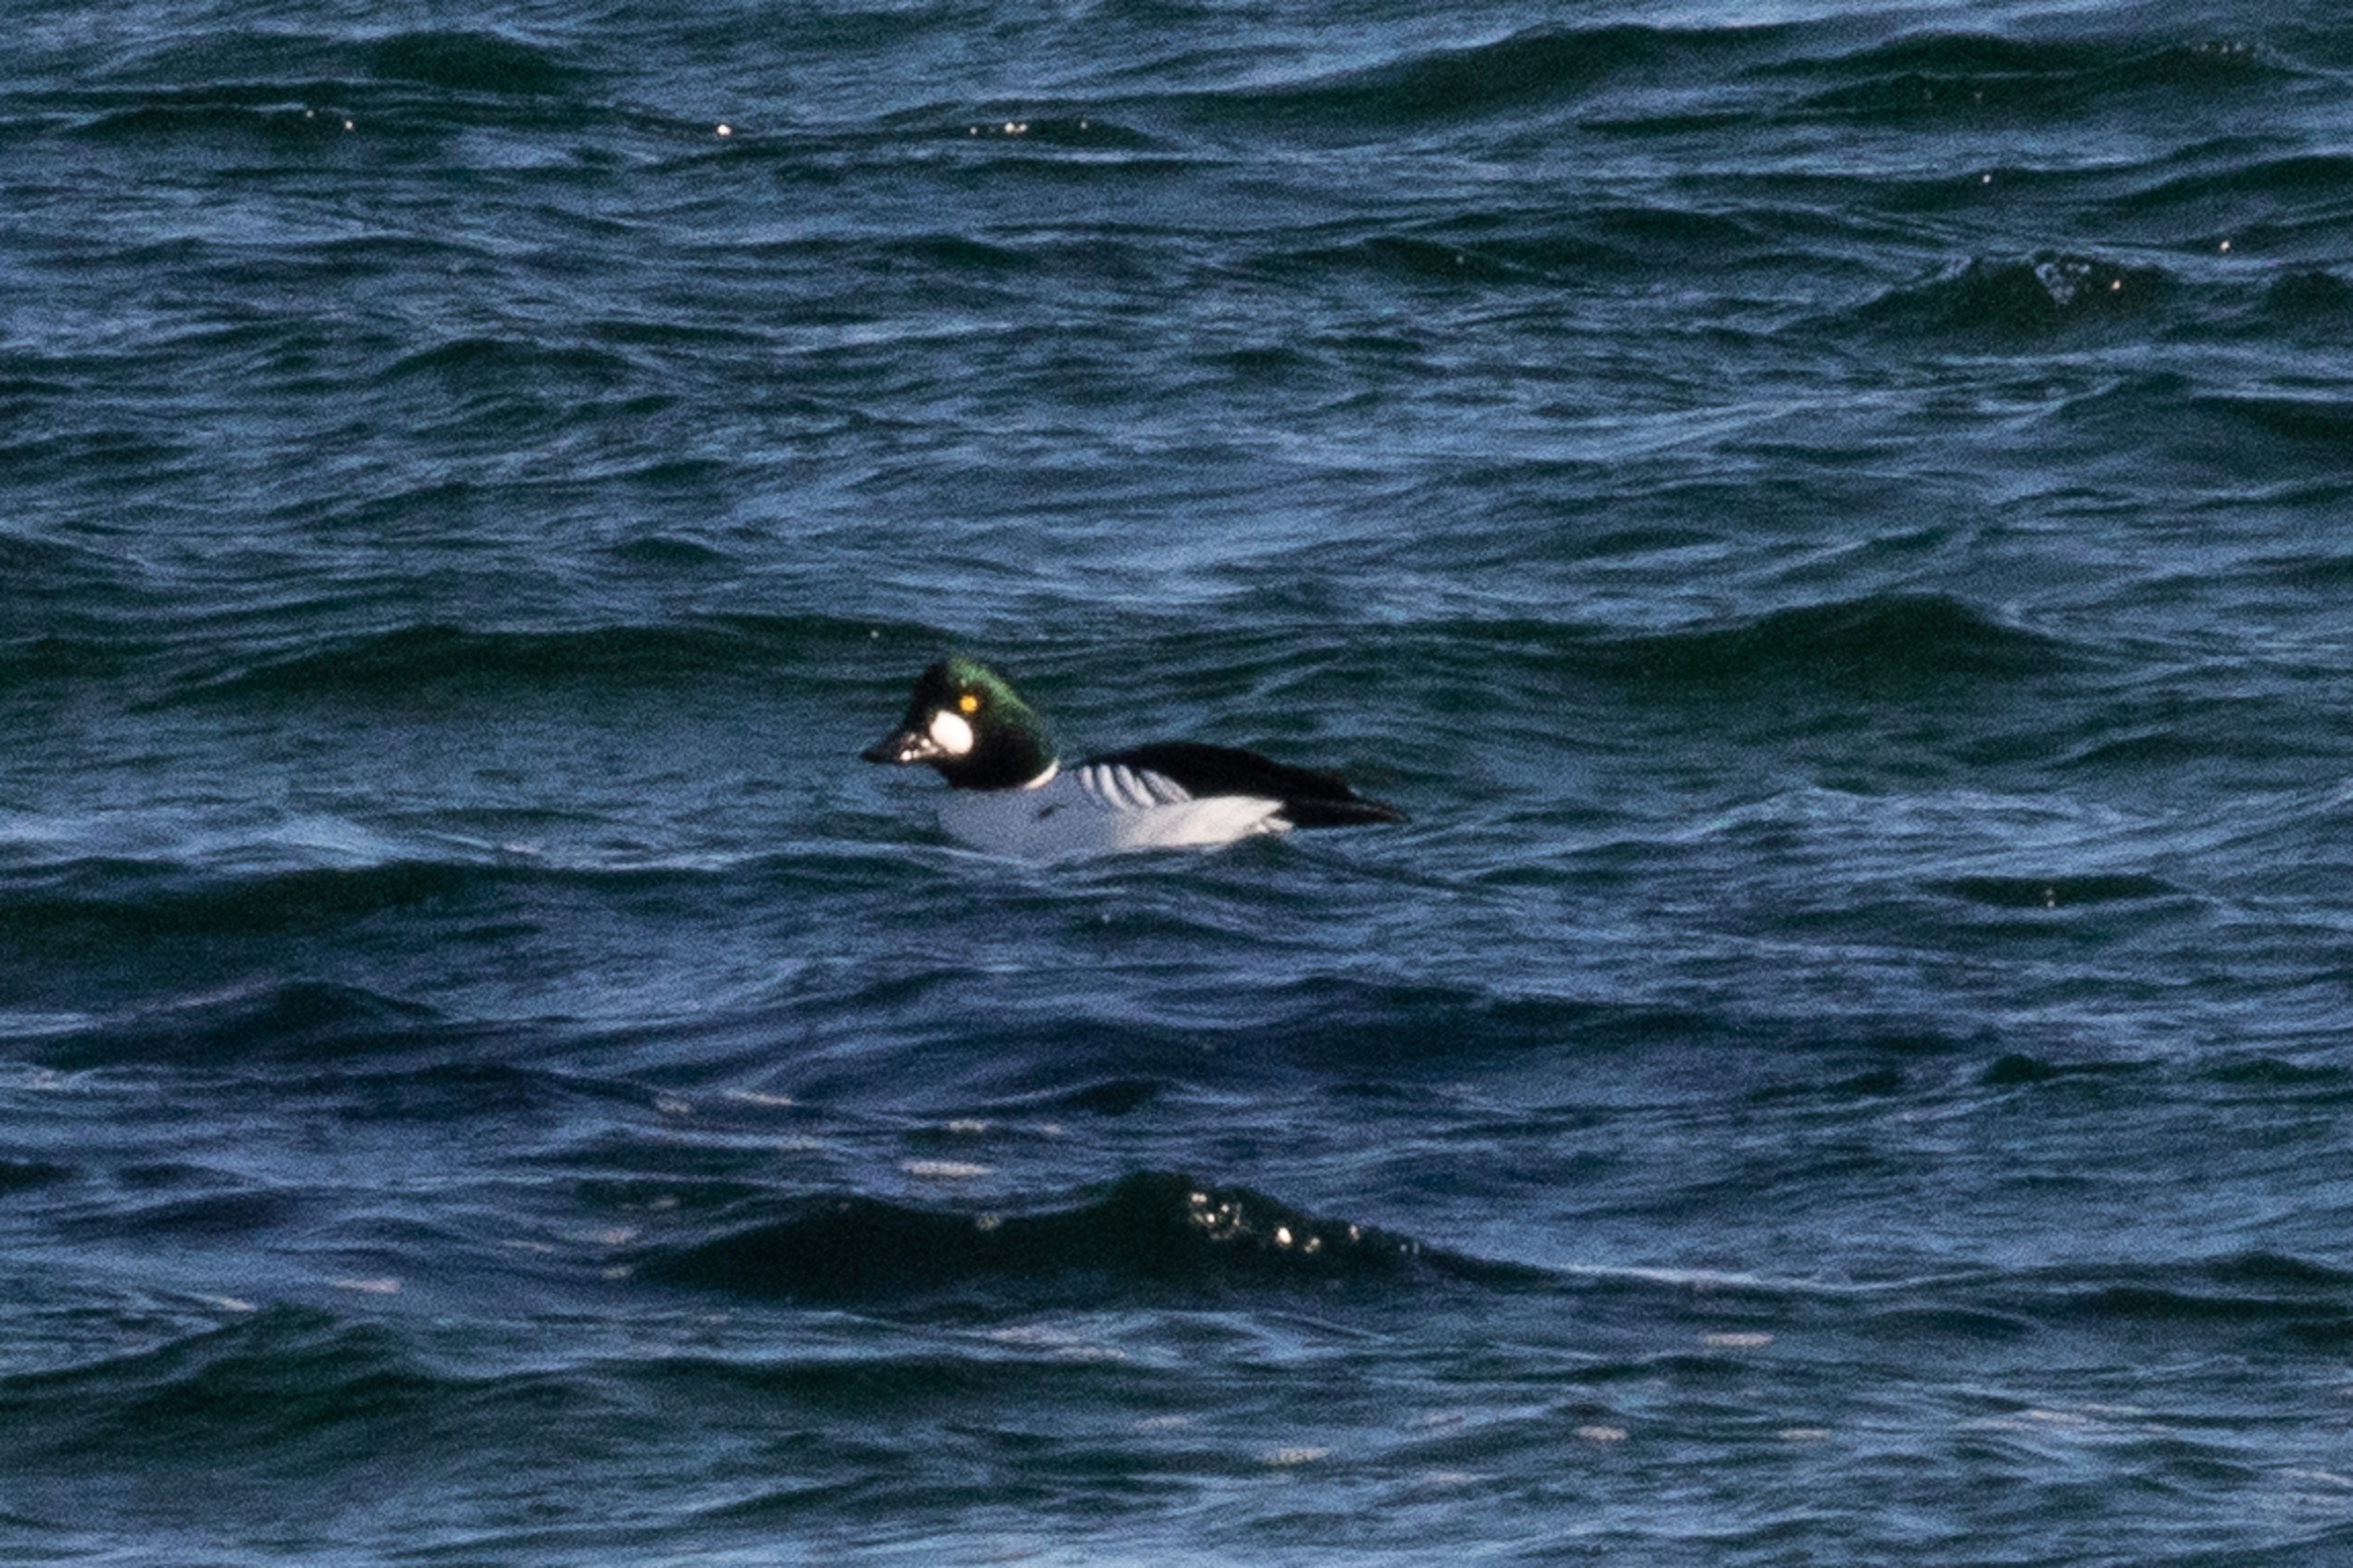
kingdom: Animalia
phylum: Chordata
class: Aves
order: Anseriformes
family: Anatidae
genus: Bucephala
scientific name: Bucephala clangula
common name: Hvinand
